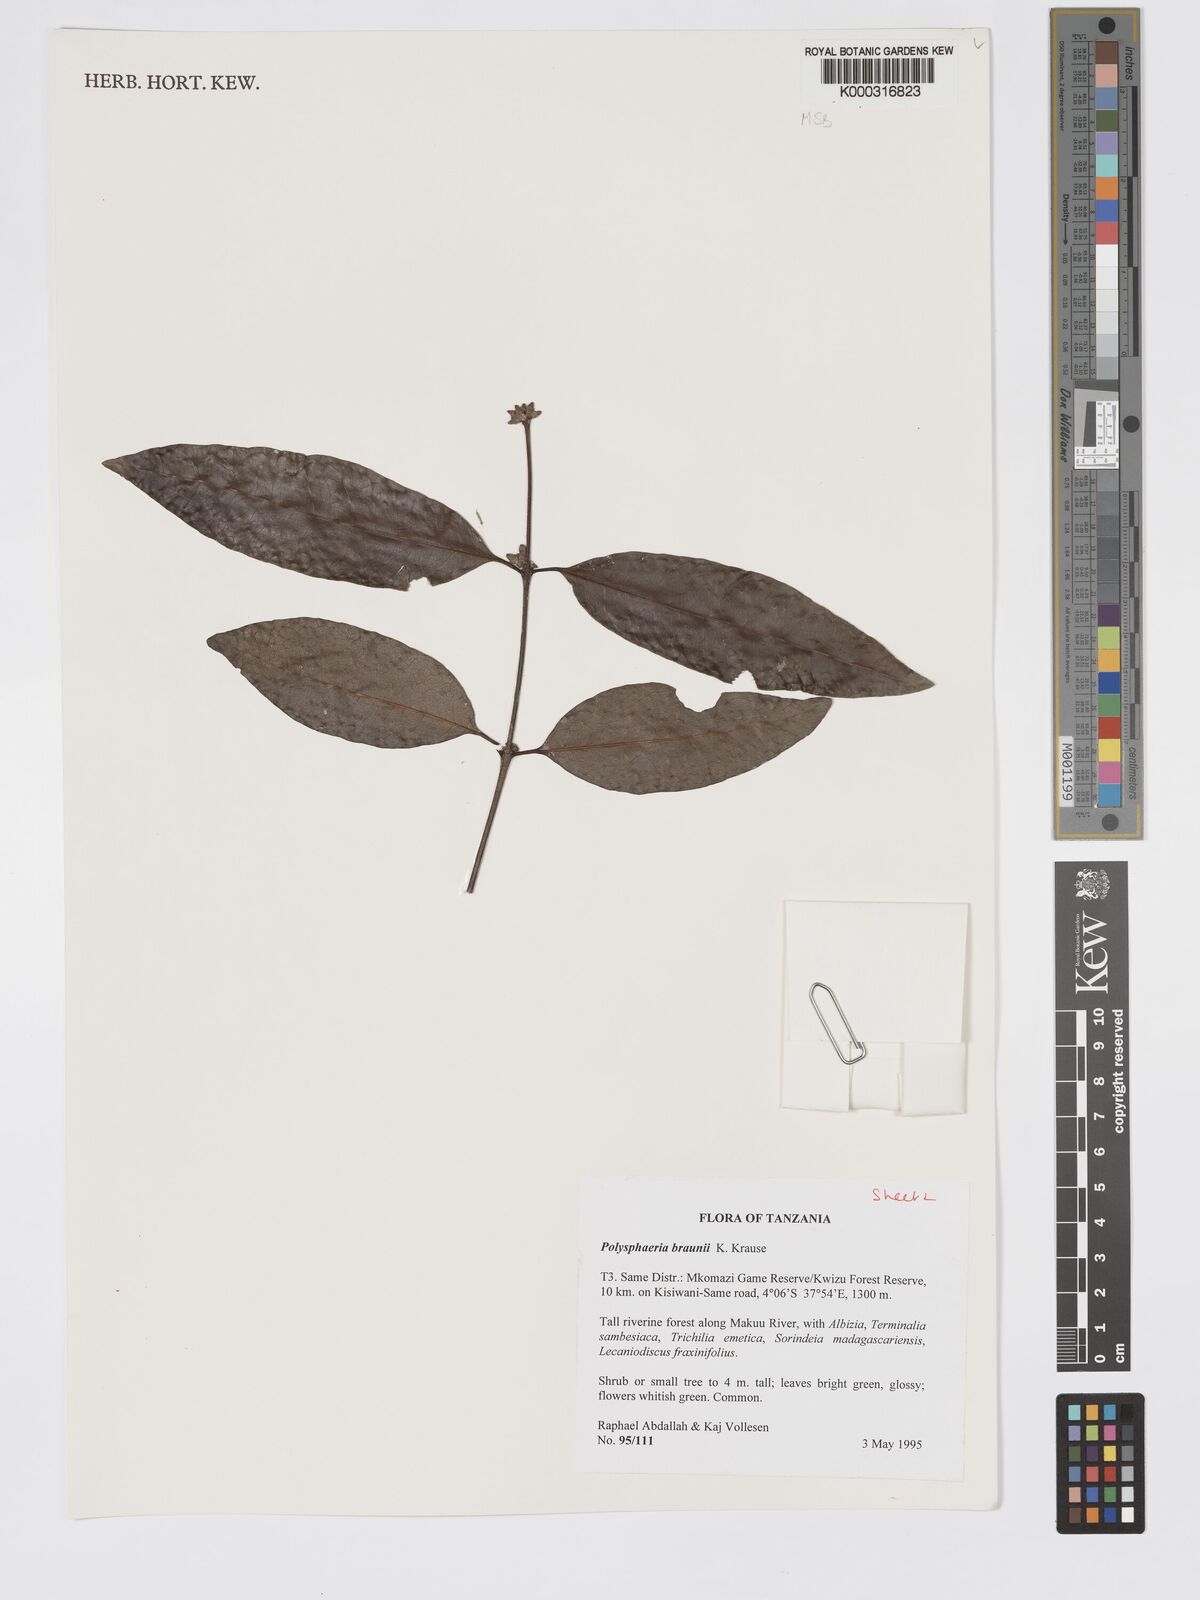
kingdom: Plantae
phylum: Tracheophyta
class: Magnoliopsida
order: Gentianales
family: Rubiaceae
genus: Polysphaeria
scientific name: Polysphaeria braunii
